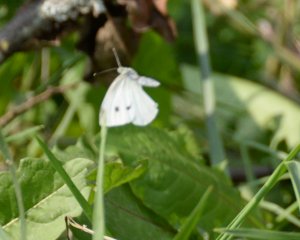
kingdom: Animalia
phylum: Arthropoda
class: Insecta
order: Lepidoptera
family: Pieridae
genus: Pieris
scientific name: Pieris rapae
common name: Cabbage White
